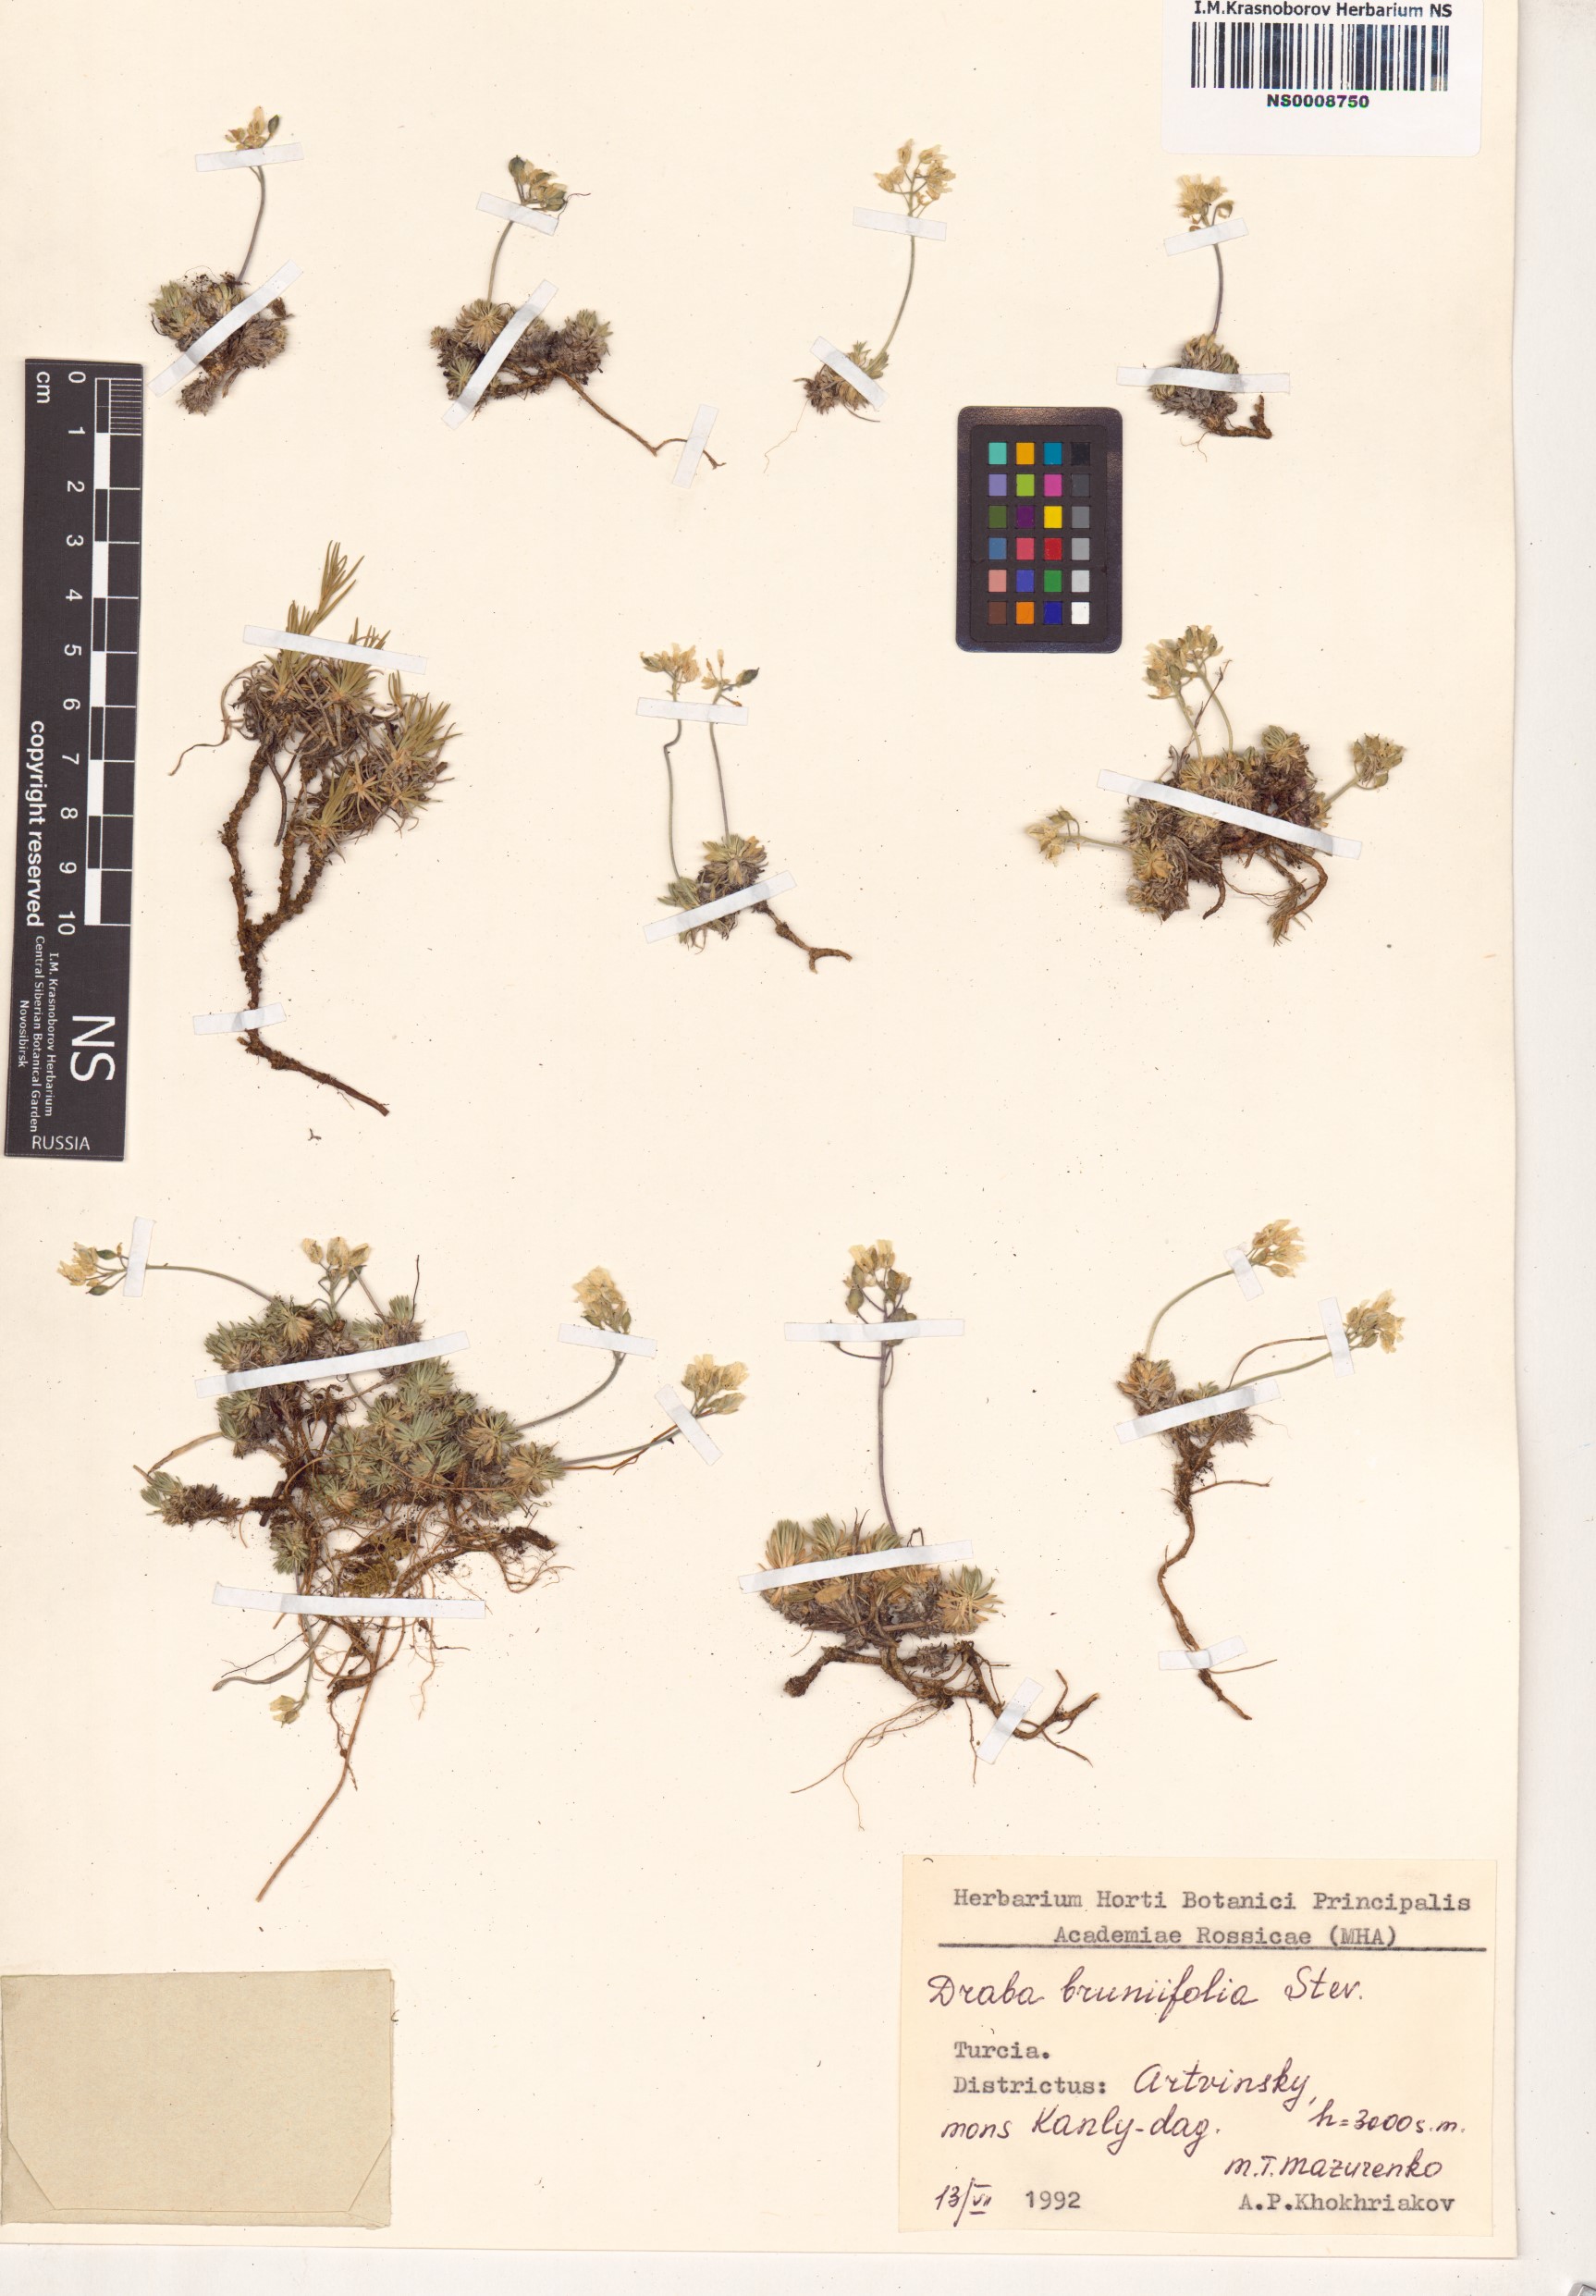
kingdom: Plantae
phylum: Tracheophyta
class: Magnoliopsida
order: Brassicales
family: Brassicaceae
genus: Draba
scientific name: Draba bruniifolia
